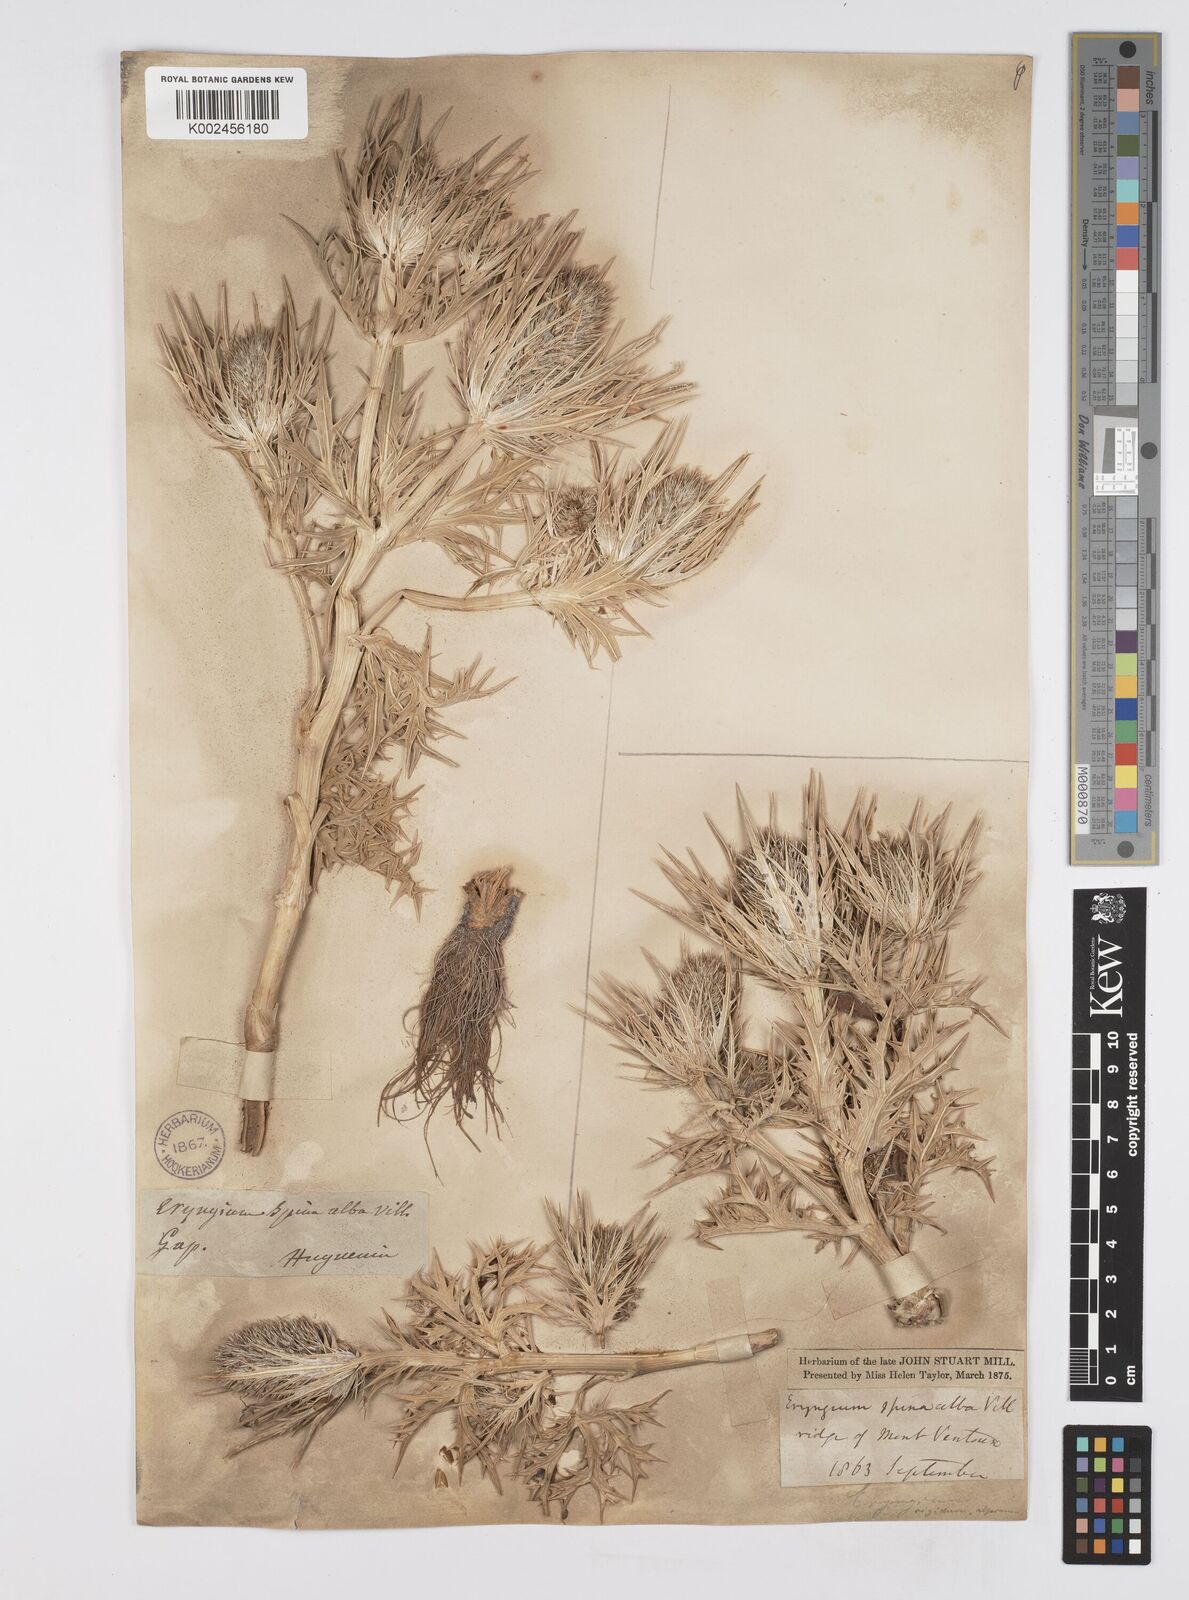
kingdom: Plantae
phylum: Tracheophyta
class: Magnoliopsida
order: Apiales
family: Apiaceae
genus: Eryngium
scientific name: Eryngium spinalba
